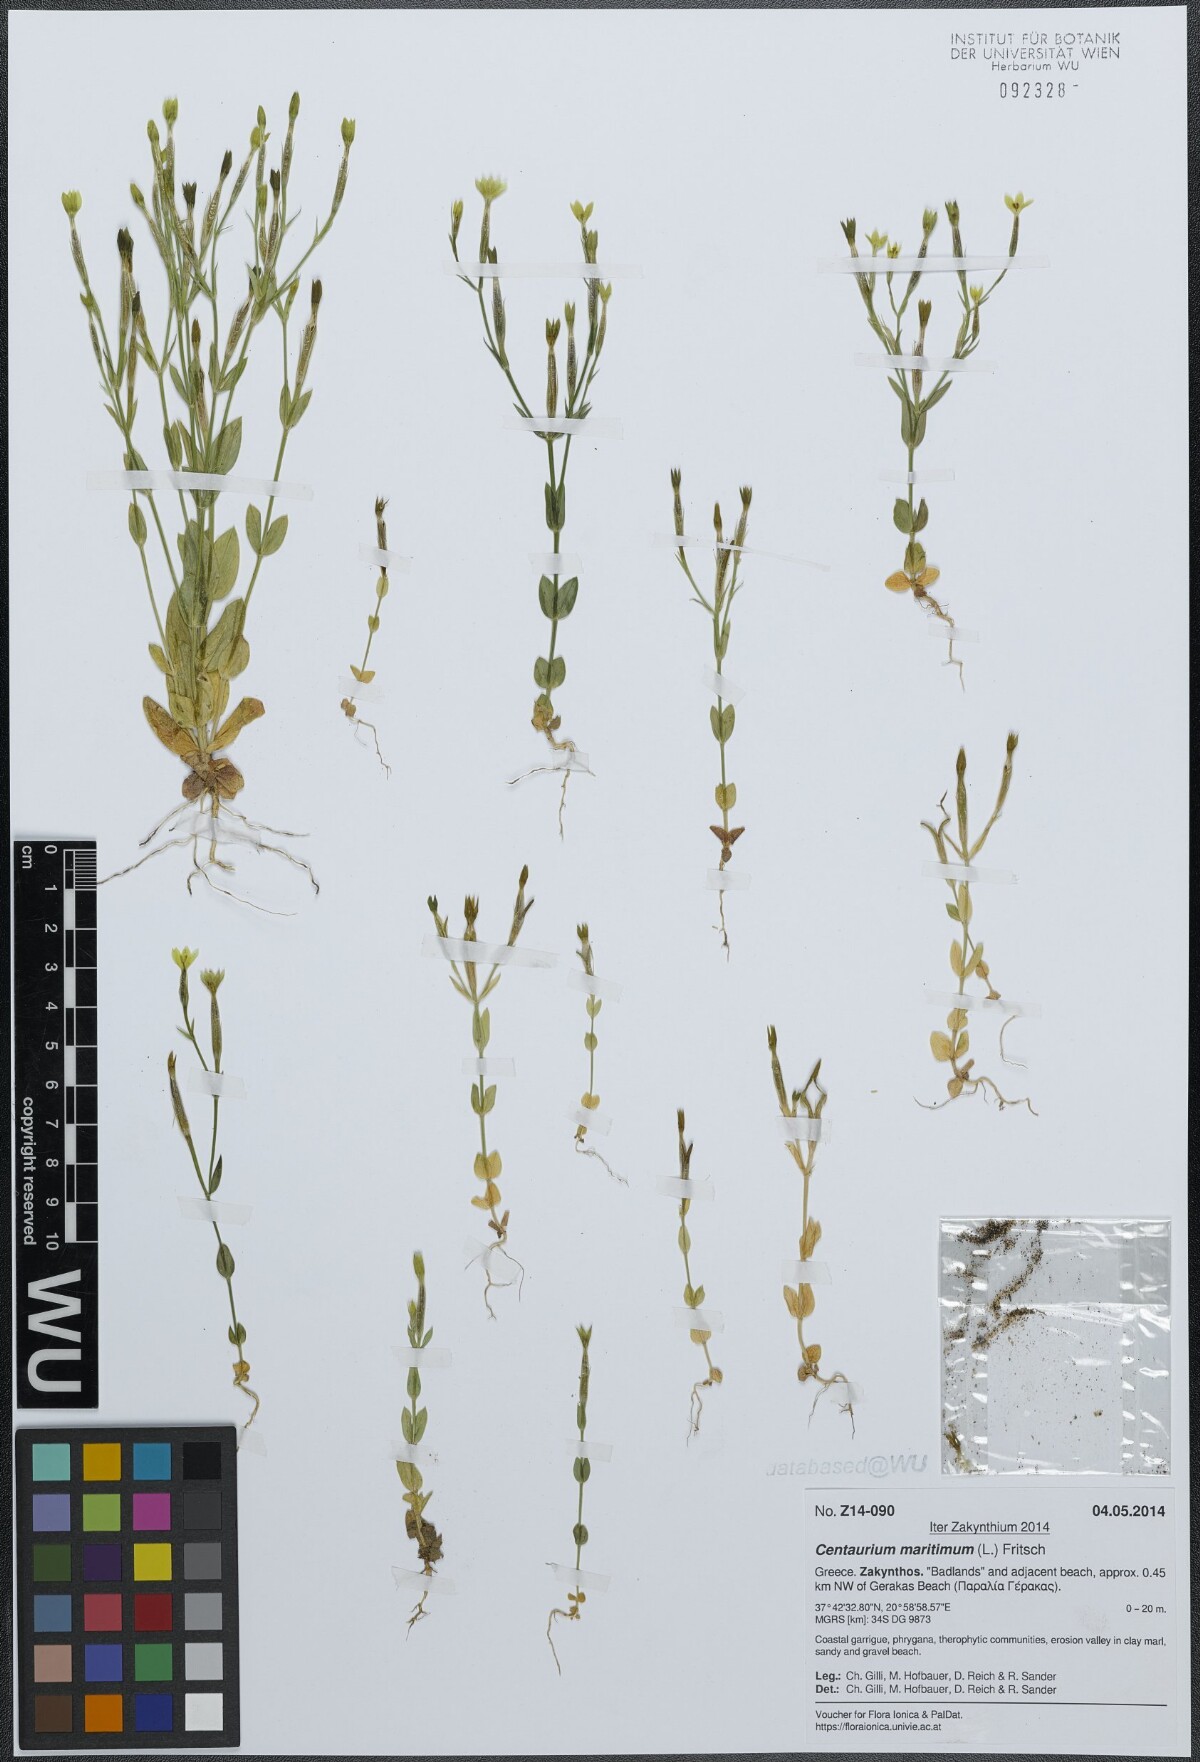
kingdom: Plantae
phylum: Tracheophyta
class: Magnoliopsida
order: Gentianales
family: Gentianaceae
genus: Centaurium
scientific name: Centaurium maritimum
